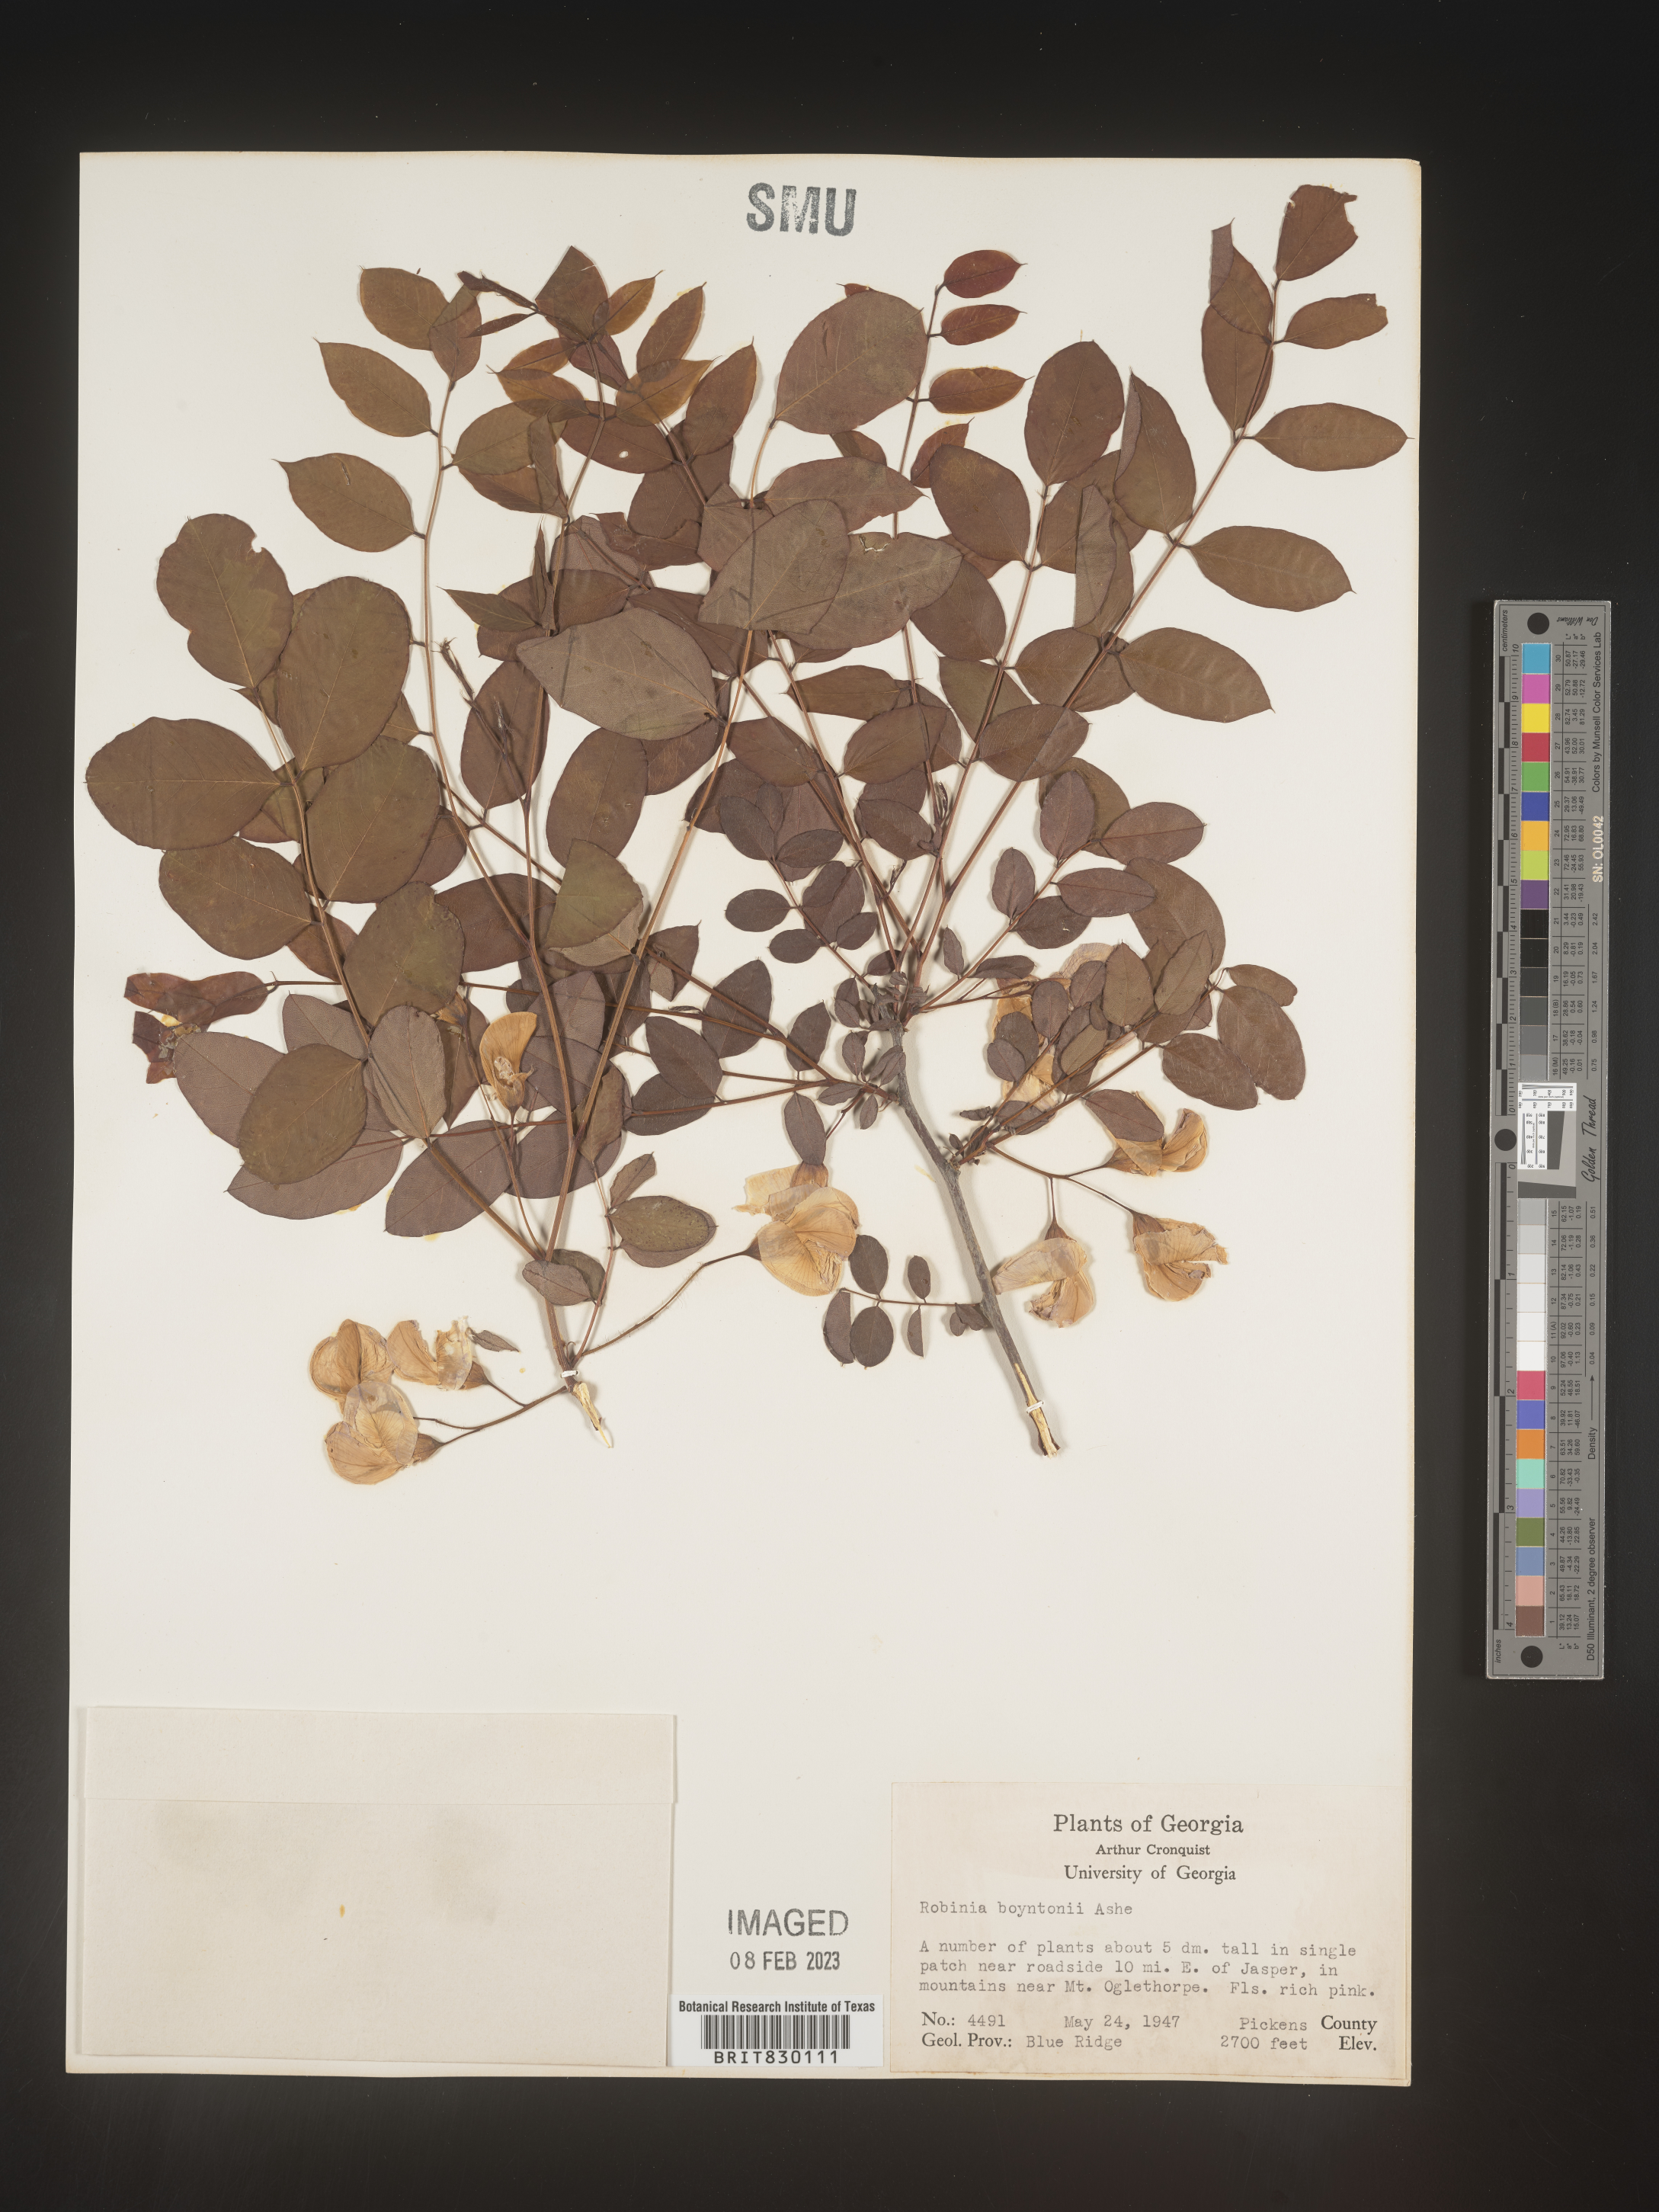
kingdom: Plantae
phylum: Tracheophyta
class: Magnoliopsida
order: Fabales
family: Fabaceae
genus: Robinia
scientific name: Robinia
